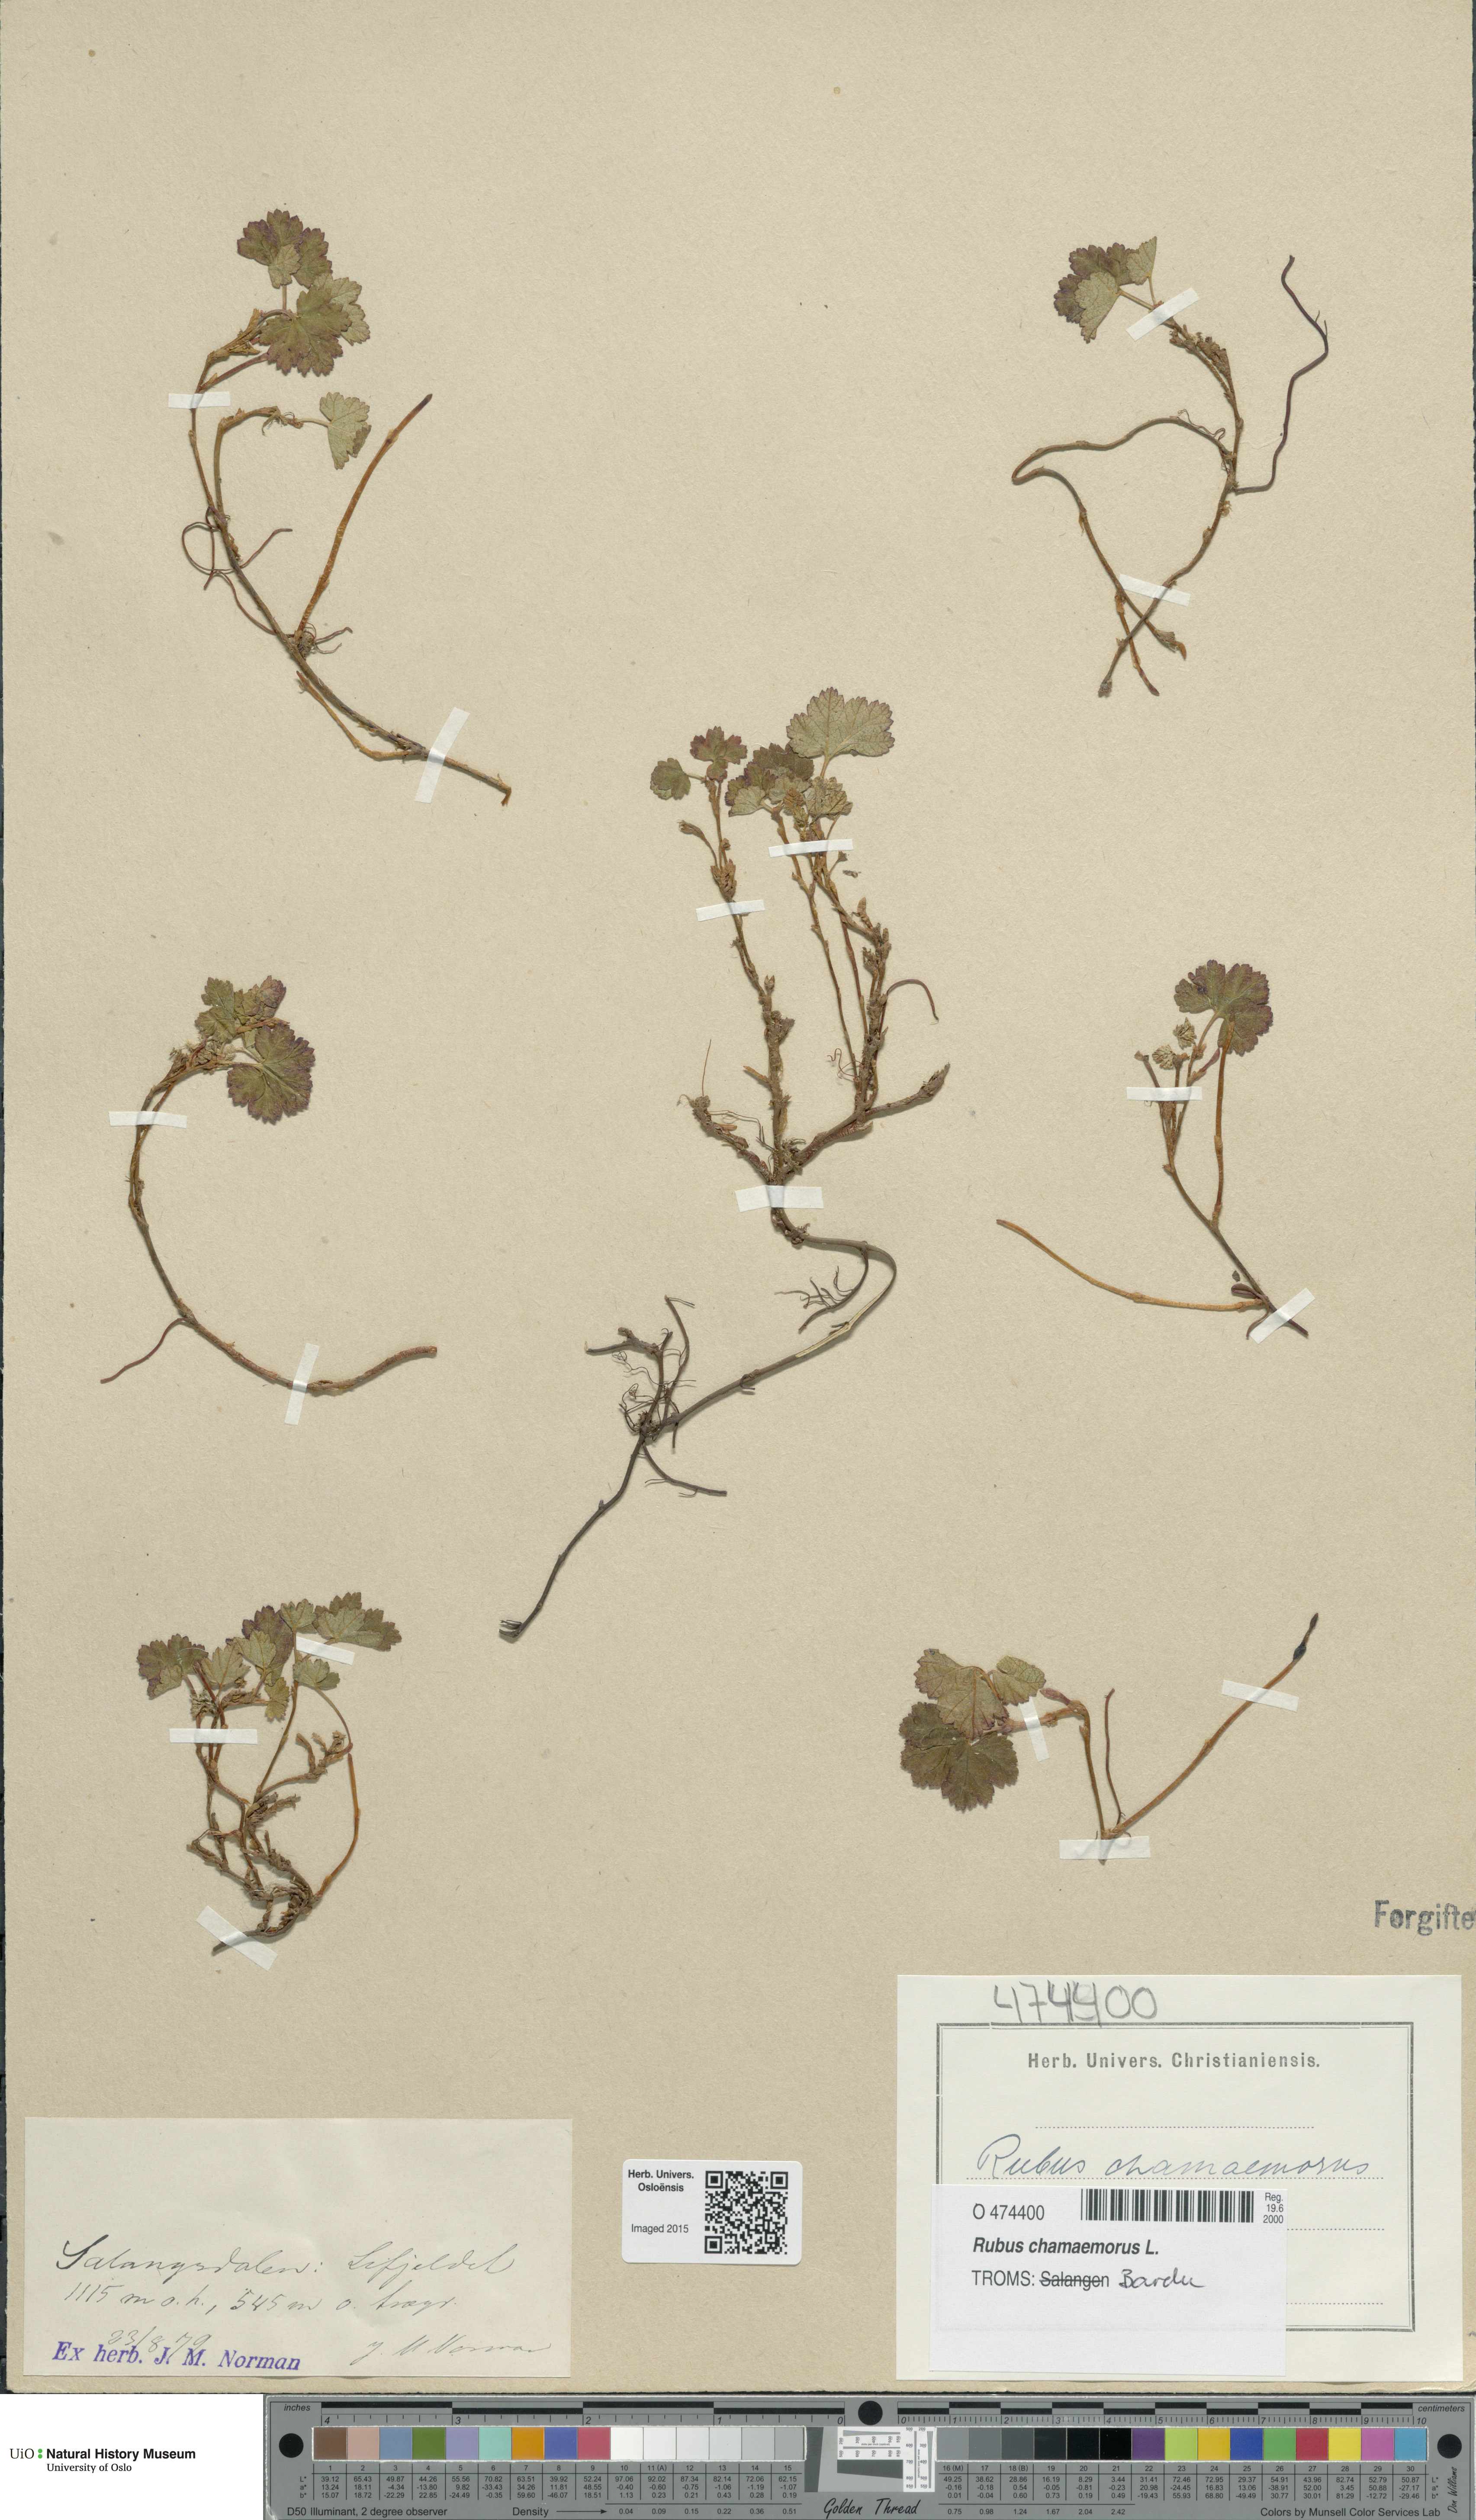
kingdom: Plantae
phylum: Tracheophyta
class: Magnoliopsida
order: Rosales
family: Rosaceae
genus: Rubus
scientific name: Rubus chamaemorus
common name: Cloudberry
